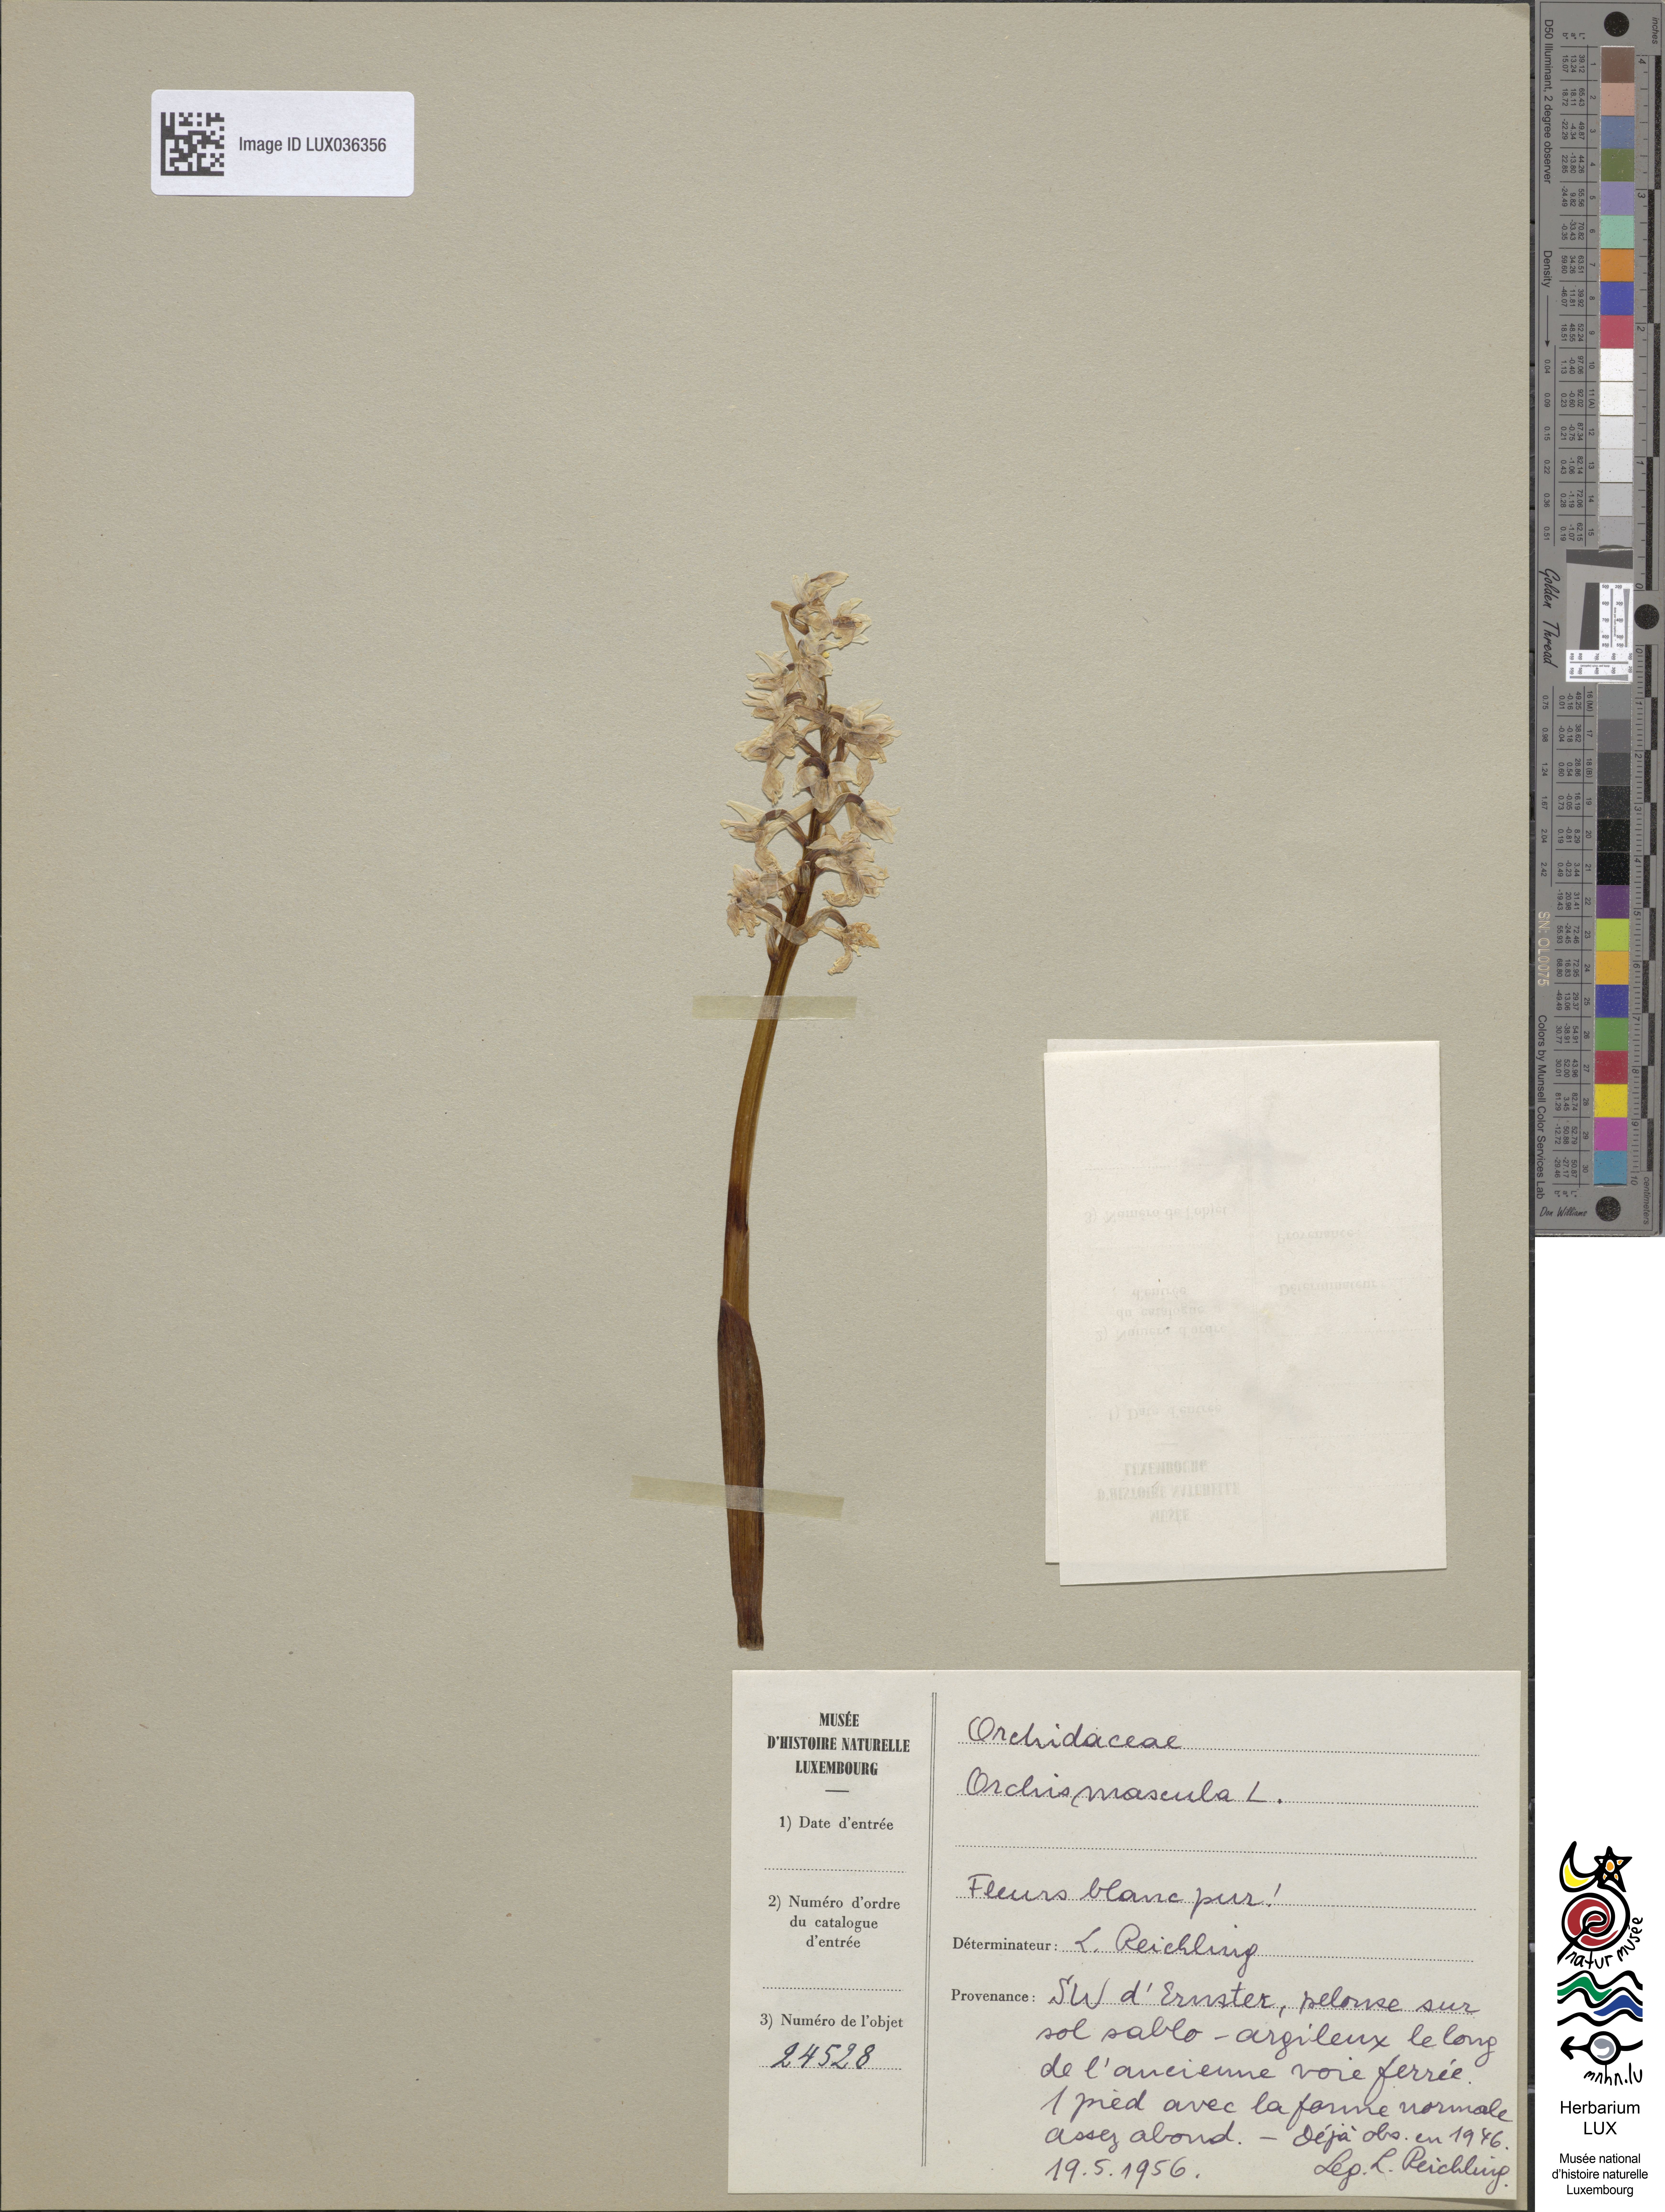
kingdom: Plantae
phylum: Tracheophyta
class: Liliopsida
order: Asparagales
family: Orchidaceae
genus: Orchis
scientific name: Orchis mascula
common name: Early-purple orchid
